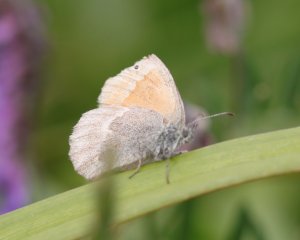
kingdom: Animalia
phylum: Arthropoda
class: Insecta
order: Lepidoptera
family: Nymphalidae
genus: Coenonympha
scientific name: Coenonympha tullia
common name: Large Heath
